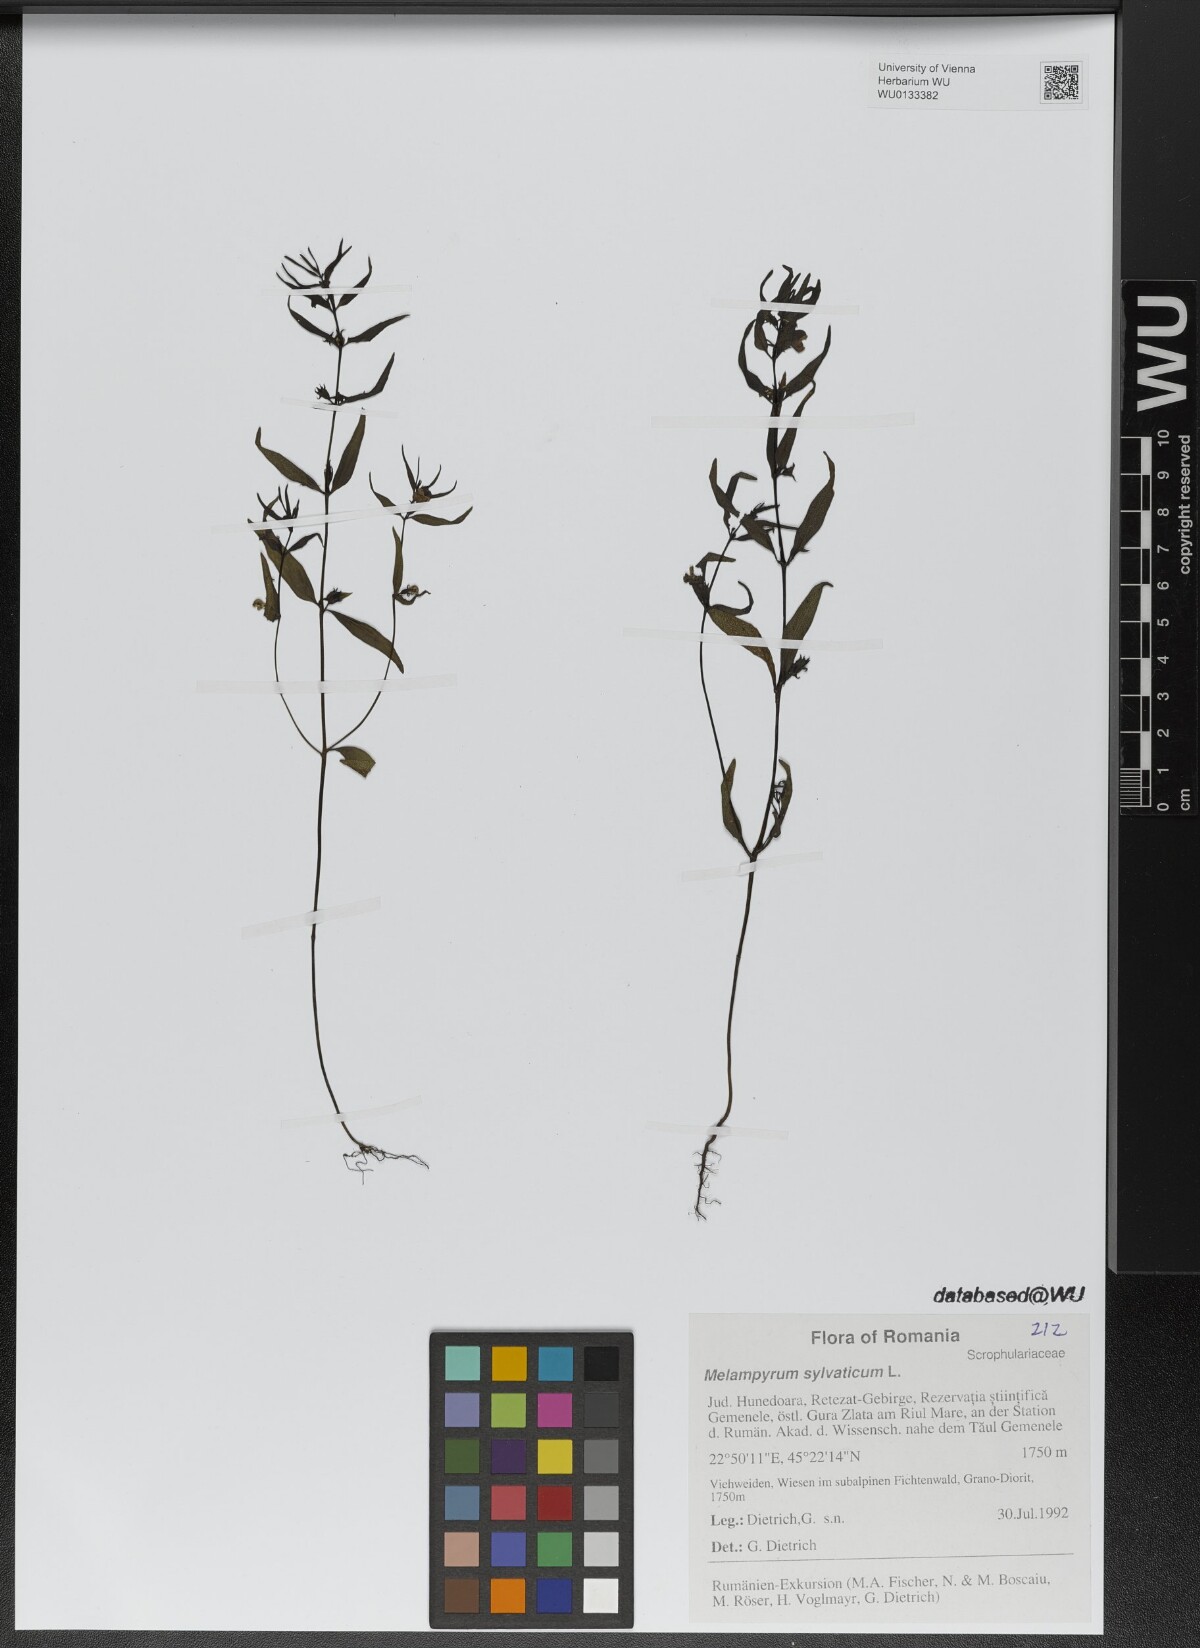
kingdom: Plantae
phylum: Tracheophyta
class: Magnoliopsida
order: Lamiales
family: Orobanchaceae
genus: Melampyrum
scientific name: Melampyrum sylvaticum
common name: Small cow-wheat
